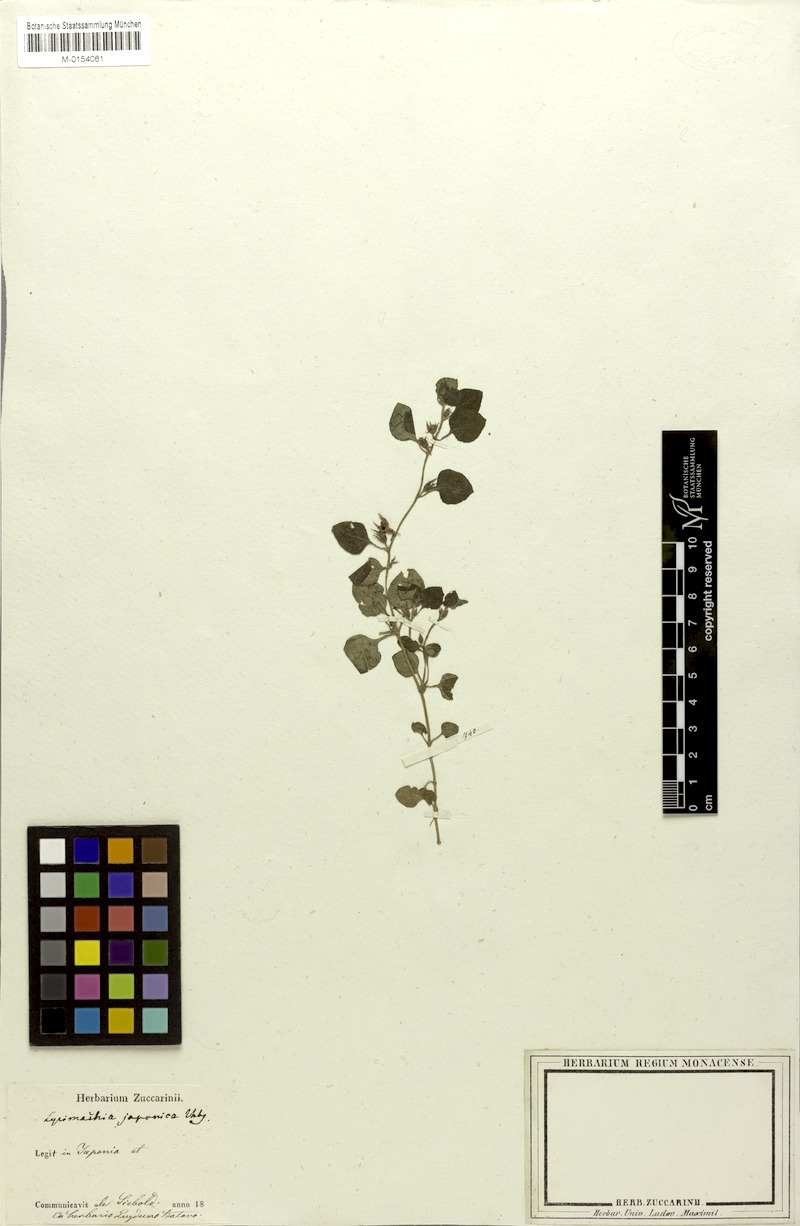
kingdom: Plantae
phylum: Tracheophyta
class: Magnoliopsida
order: Ericales
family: Primulaceae
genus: Lysimachia
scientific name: Lysimachia japonica
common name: Japanese yellow loosestrife
